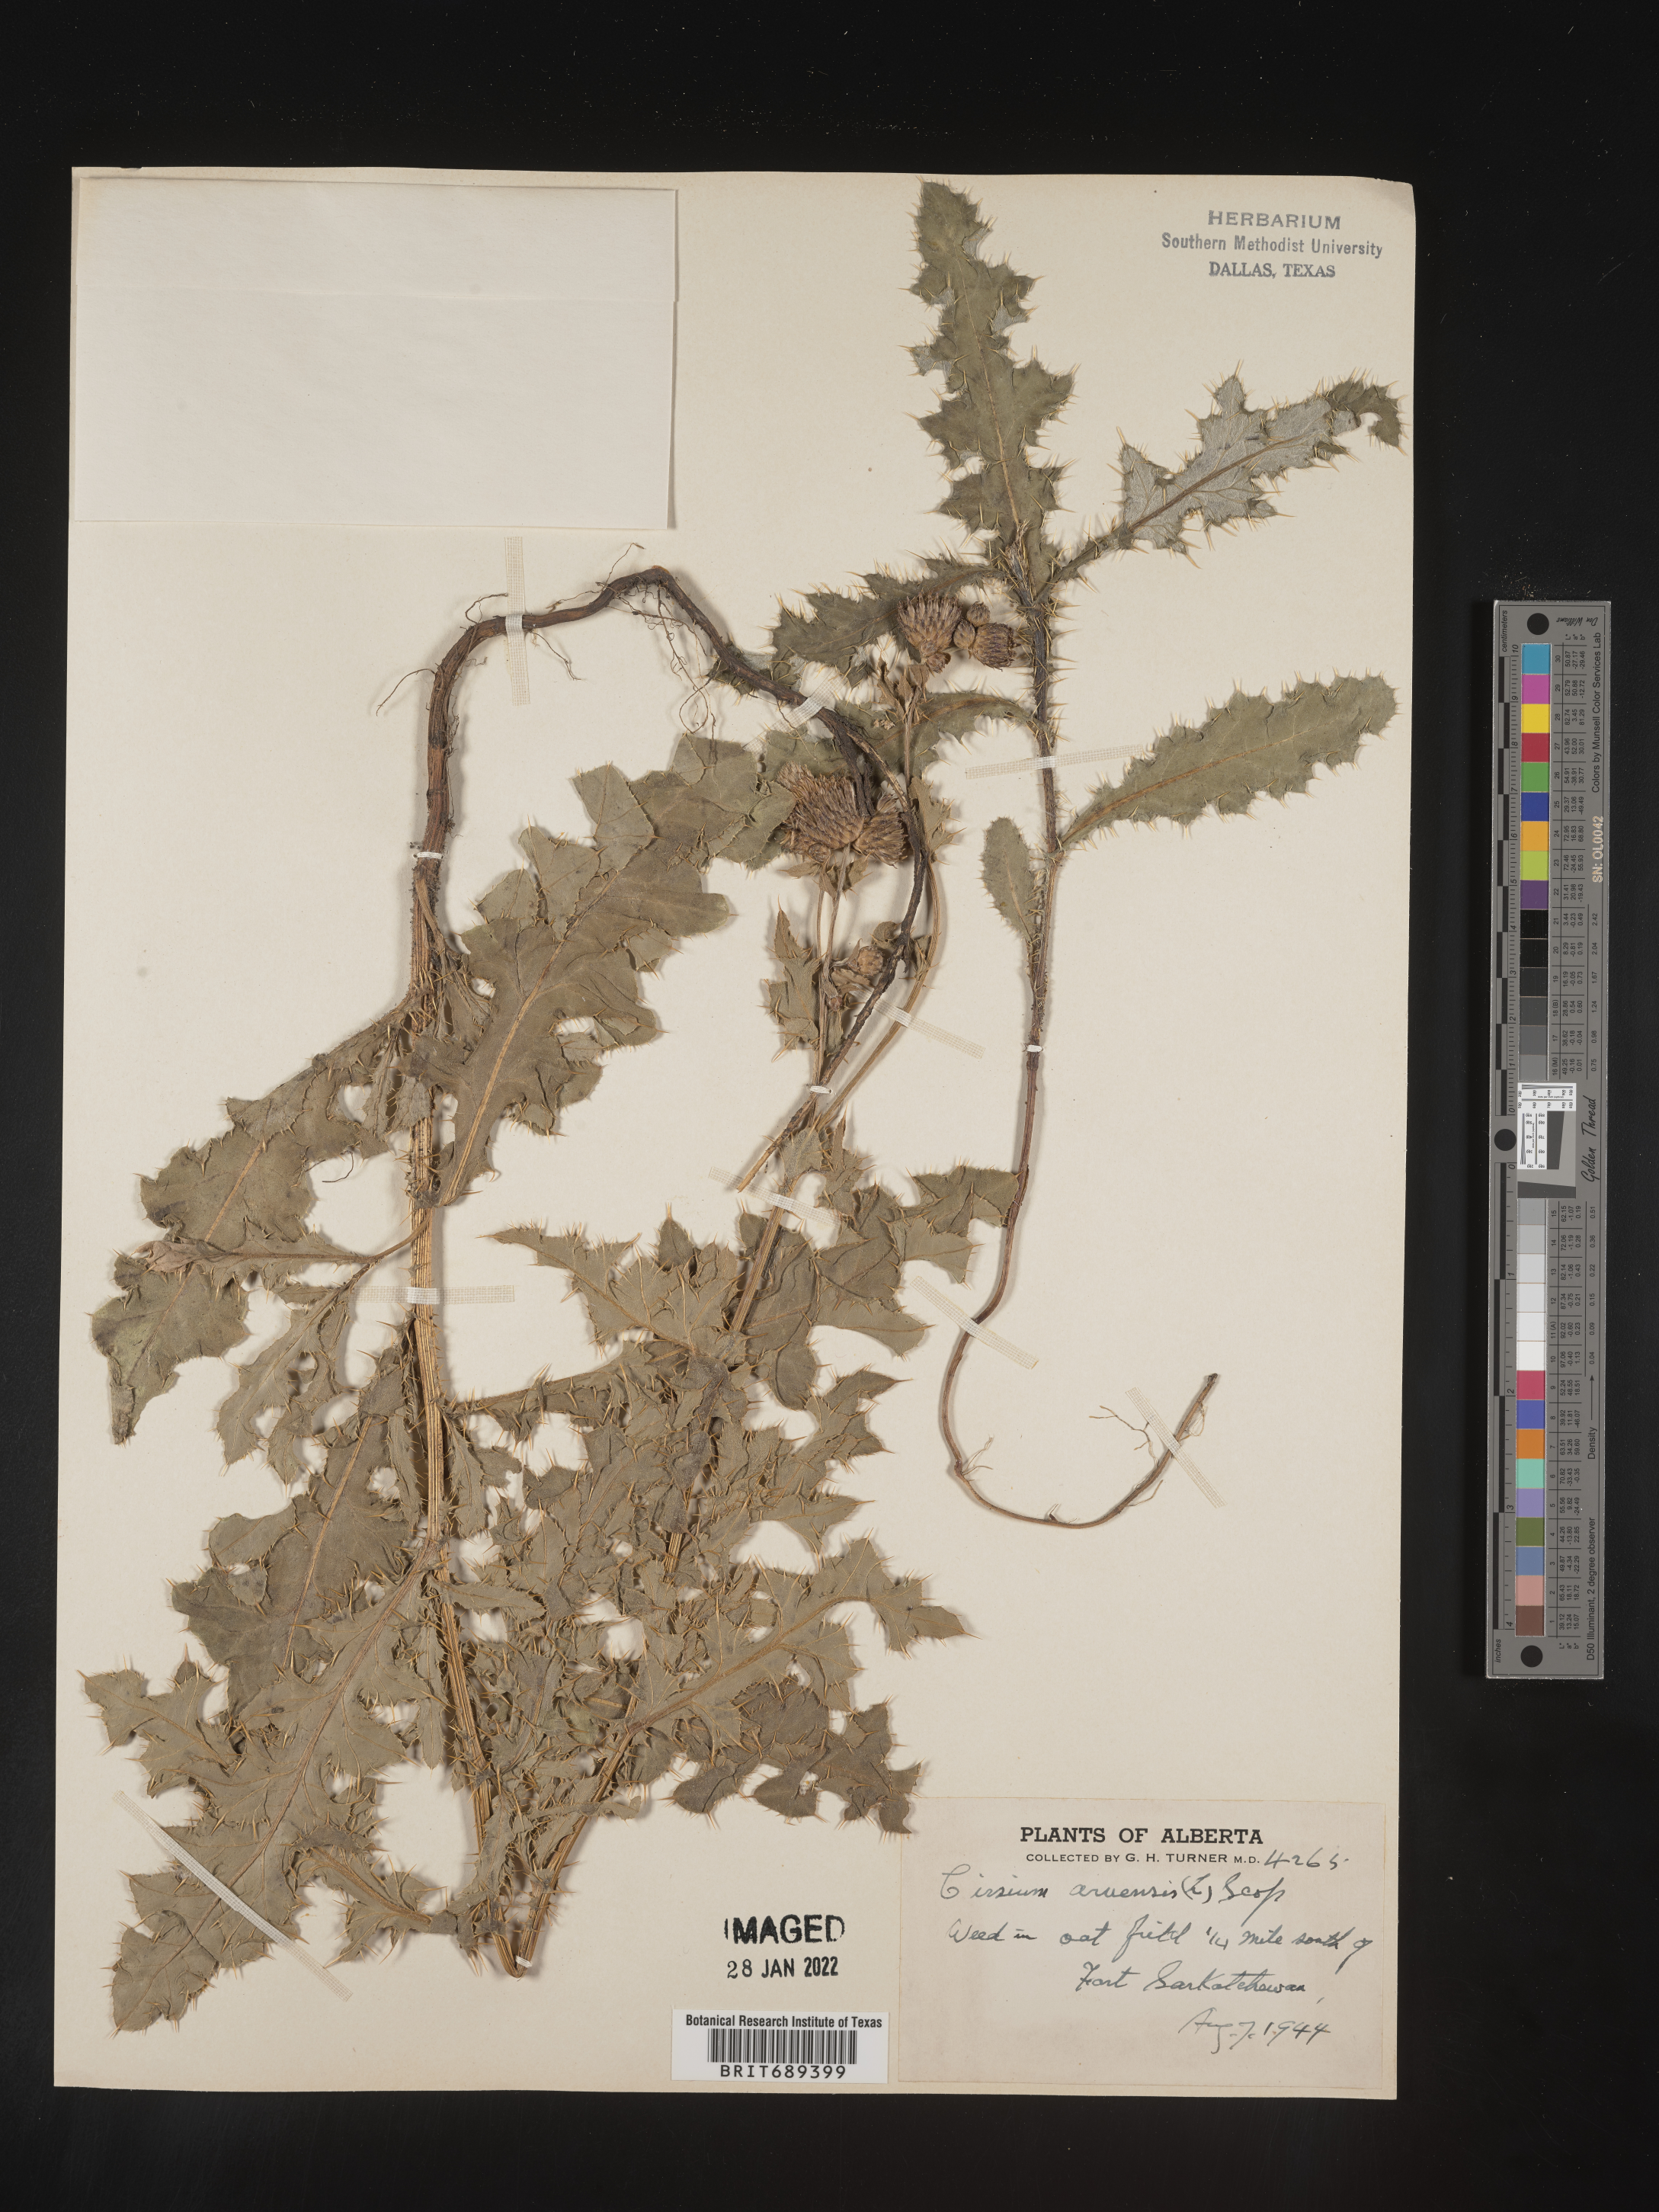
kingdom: Plantae
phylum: Tracheophyta
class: Magnoliopsida
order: Asterales
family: Asteraceae
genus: Cirsium
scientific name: Cirsium arvense
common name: Creeping thistle
